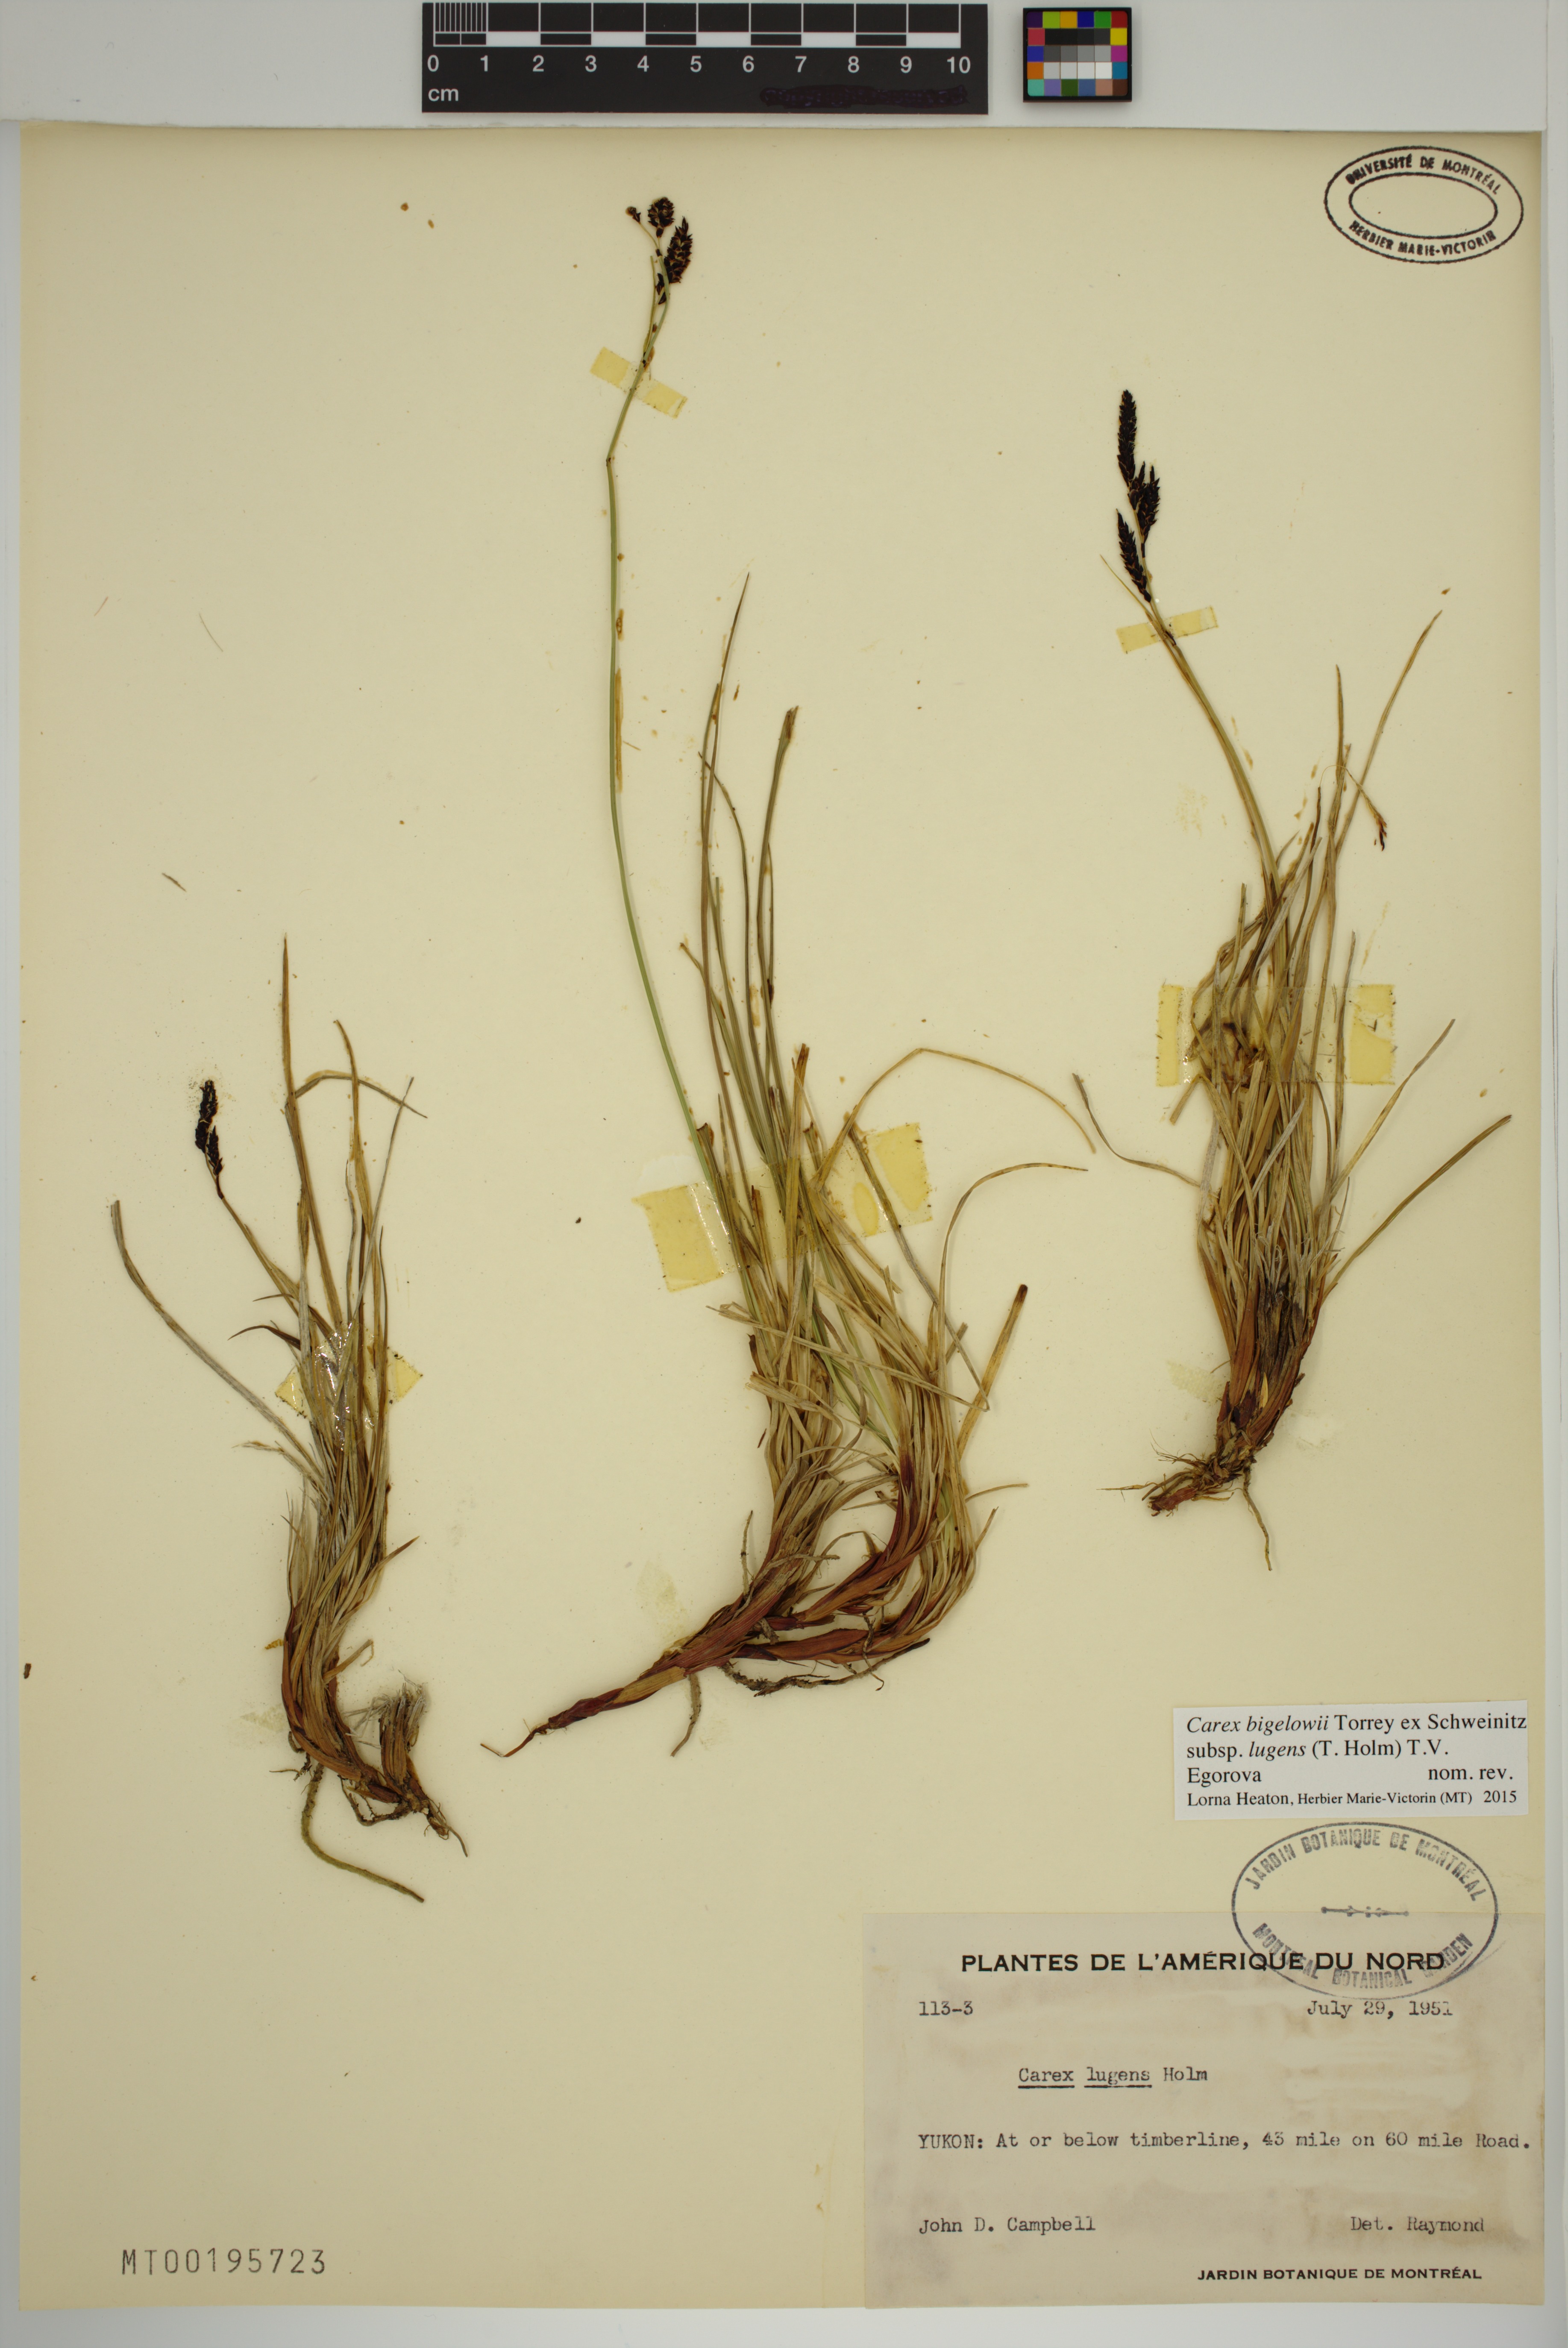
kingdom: Plantae
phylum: Tracheophyta
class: Liliopsida
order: Poales
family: Cyperaceae
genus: Carex
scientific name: Carex bigelowii
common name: Stiff sedge
